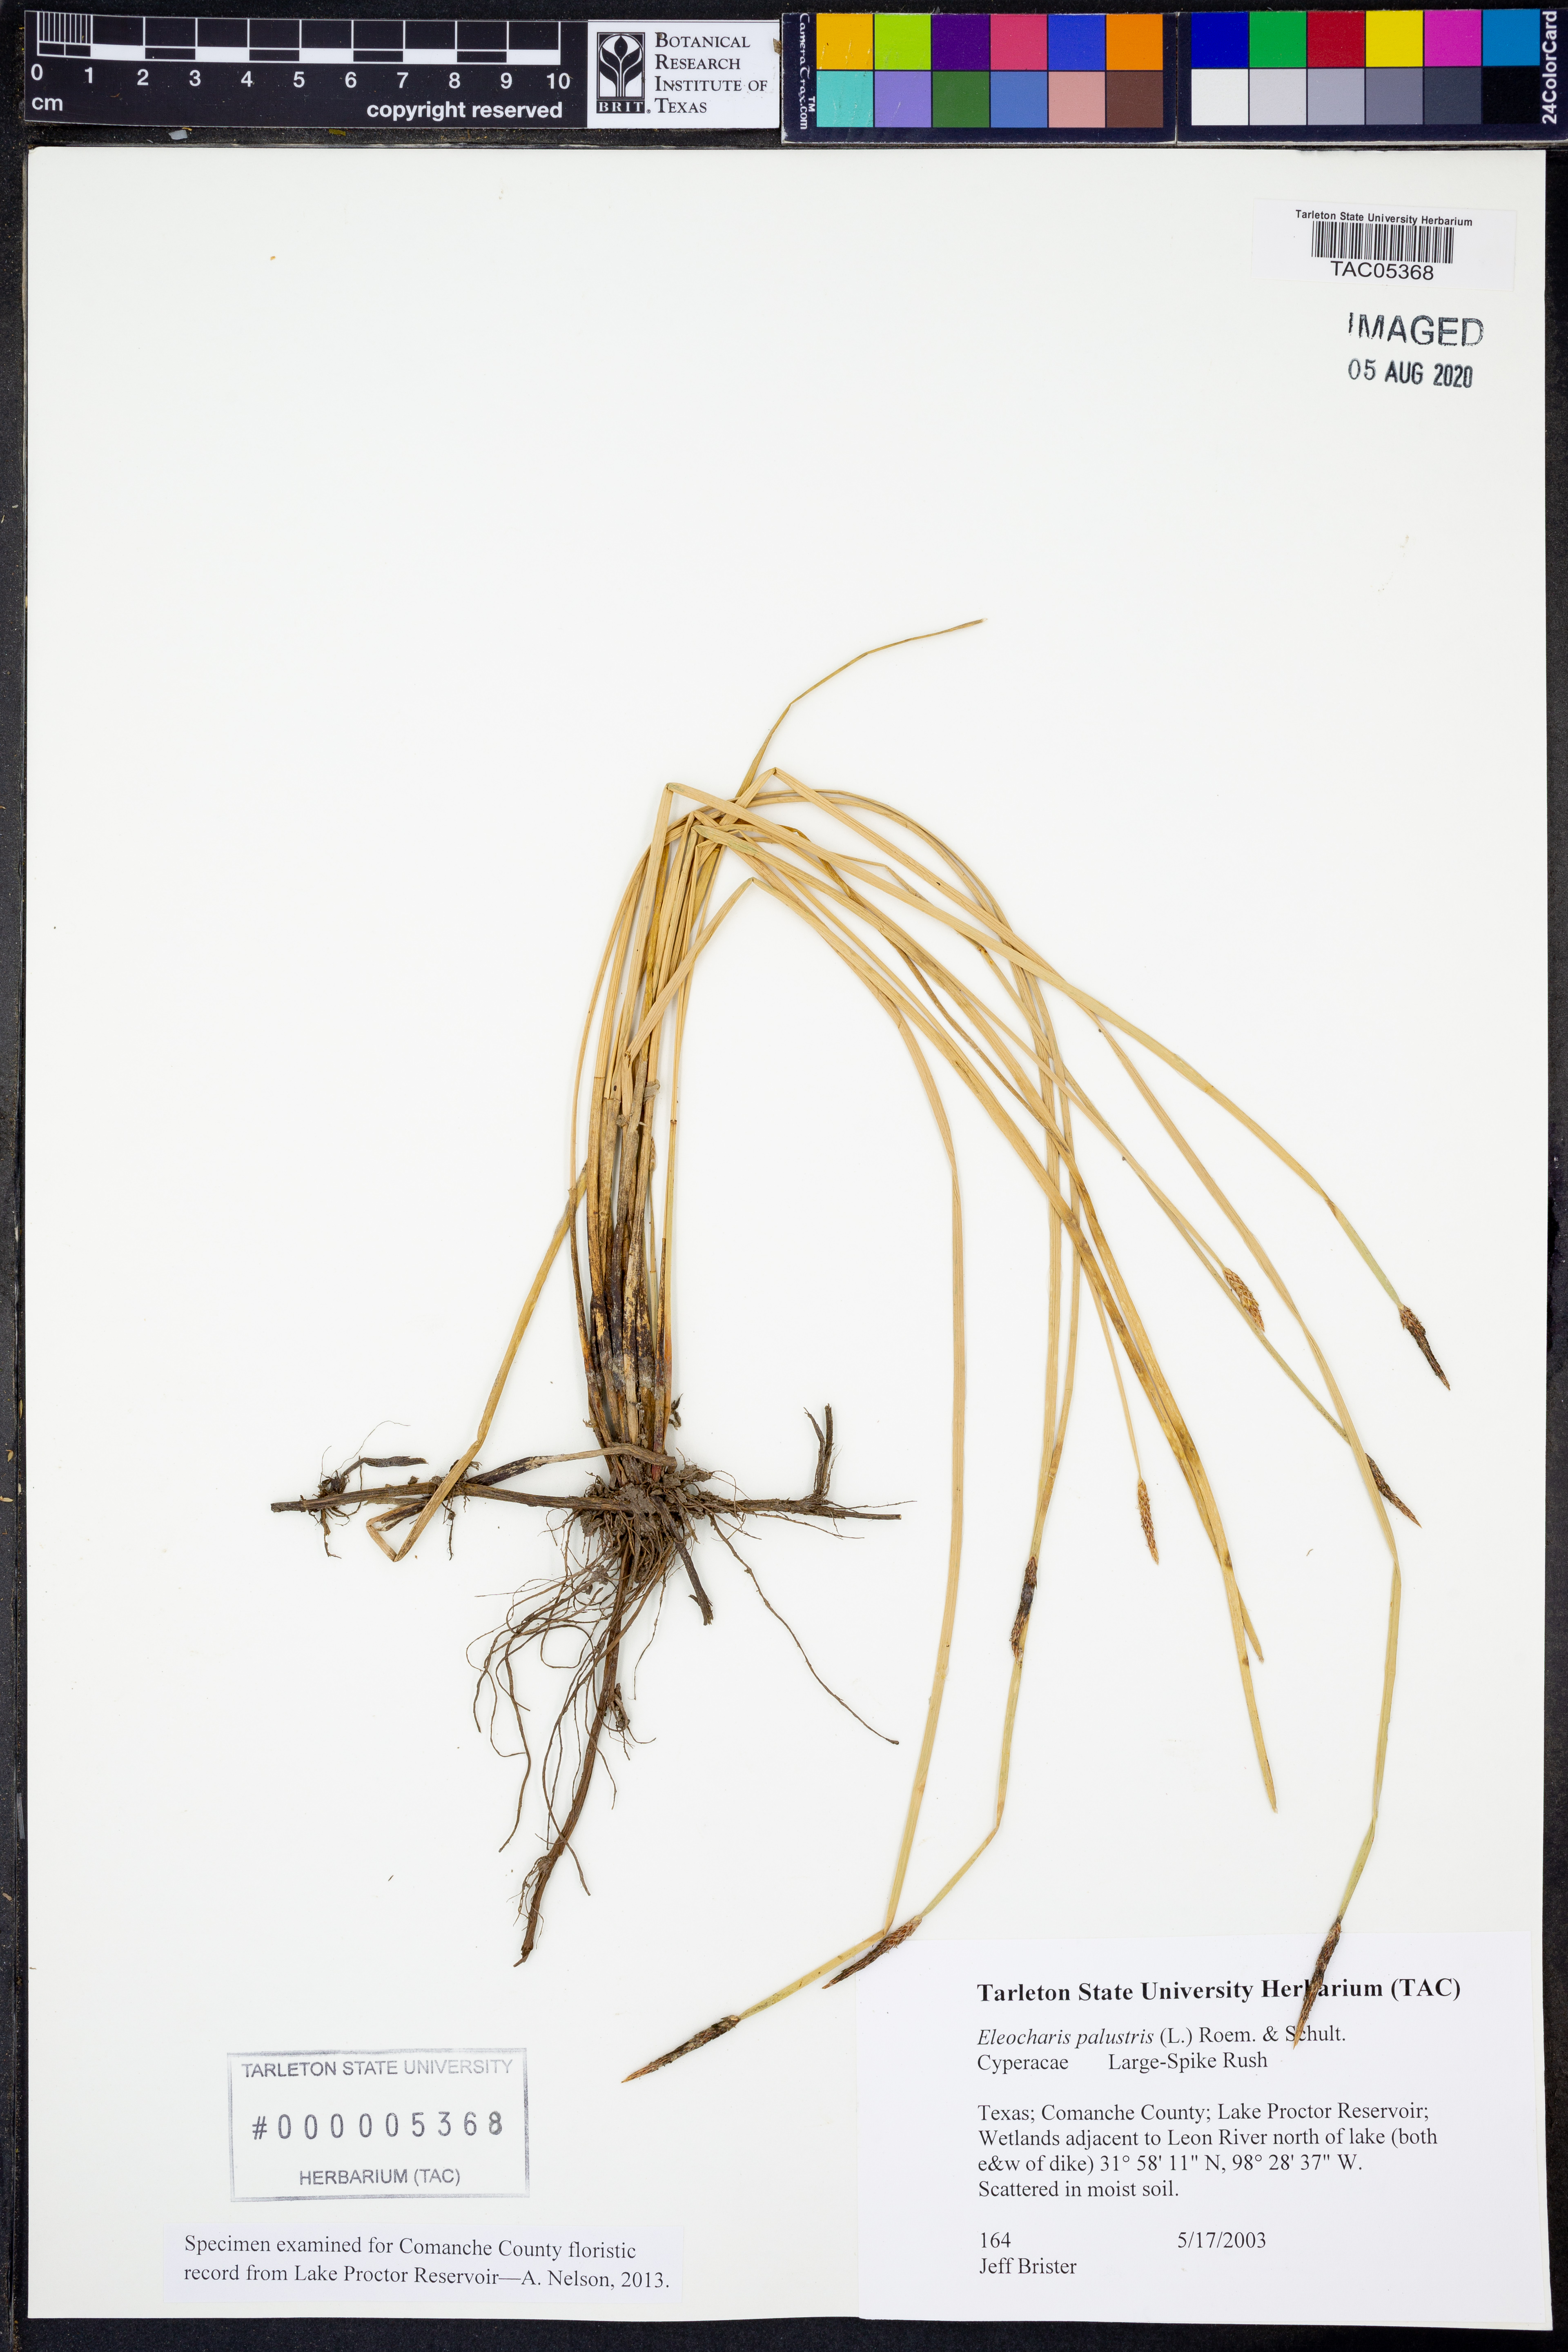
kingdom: Plantae
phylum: Tracheophyta
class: Liliopsida
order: Poales
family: Cyperaceae
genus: Eleocharis
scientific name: Eleocharis palustris
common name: Common spike-rush
